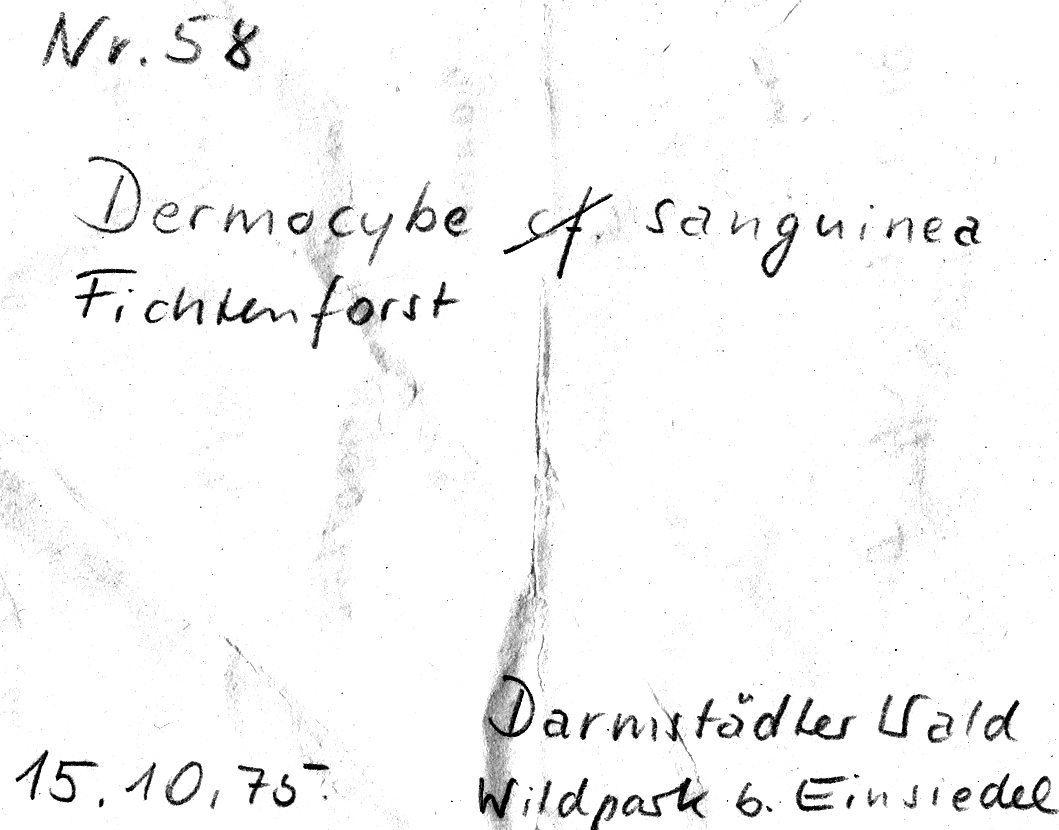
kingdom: Fungi
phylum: Basidiomycota
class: Agaricomycetes
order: Agaricales
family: Cortinariaceae
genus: Cortinarius
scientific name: Cortinarius sanguineus
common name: Bloodred webcap
